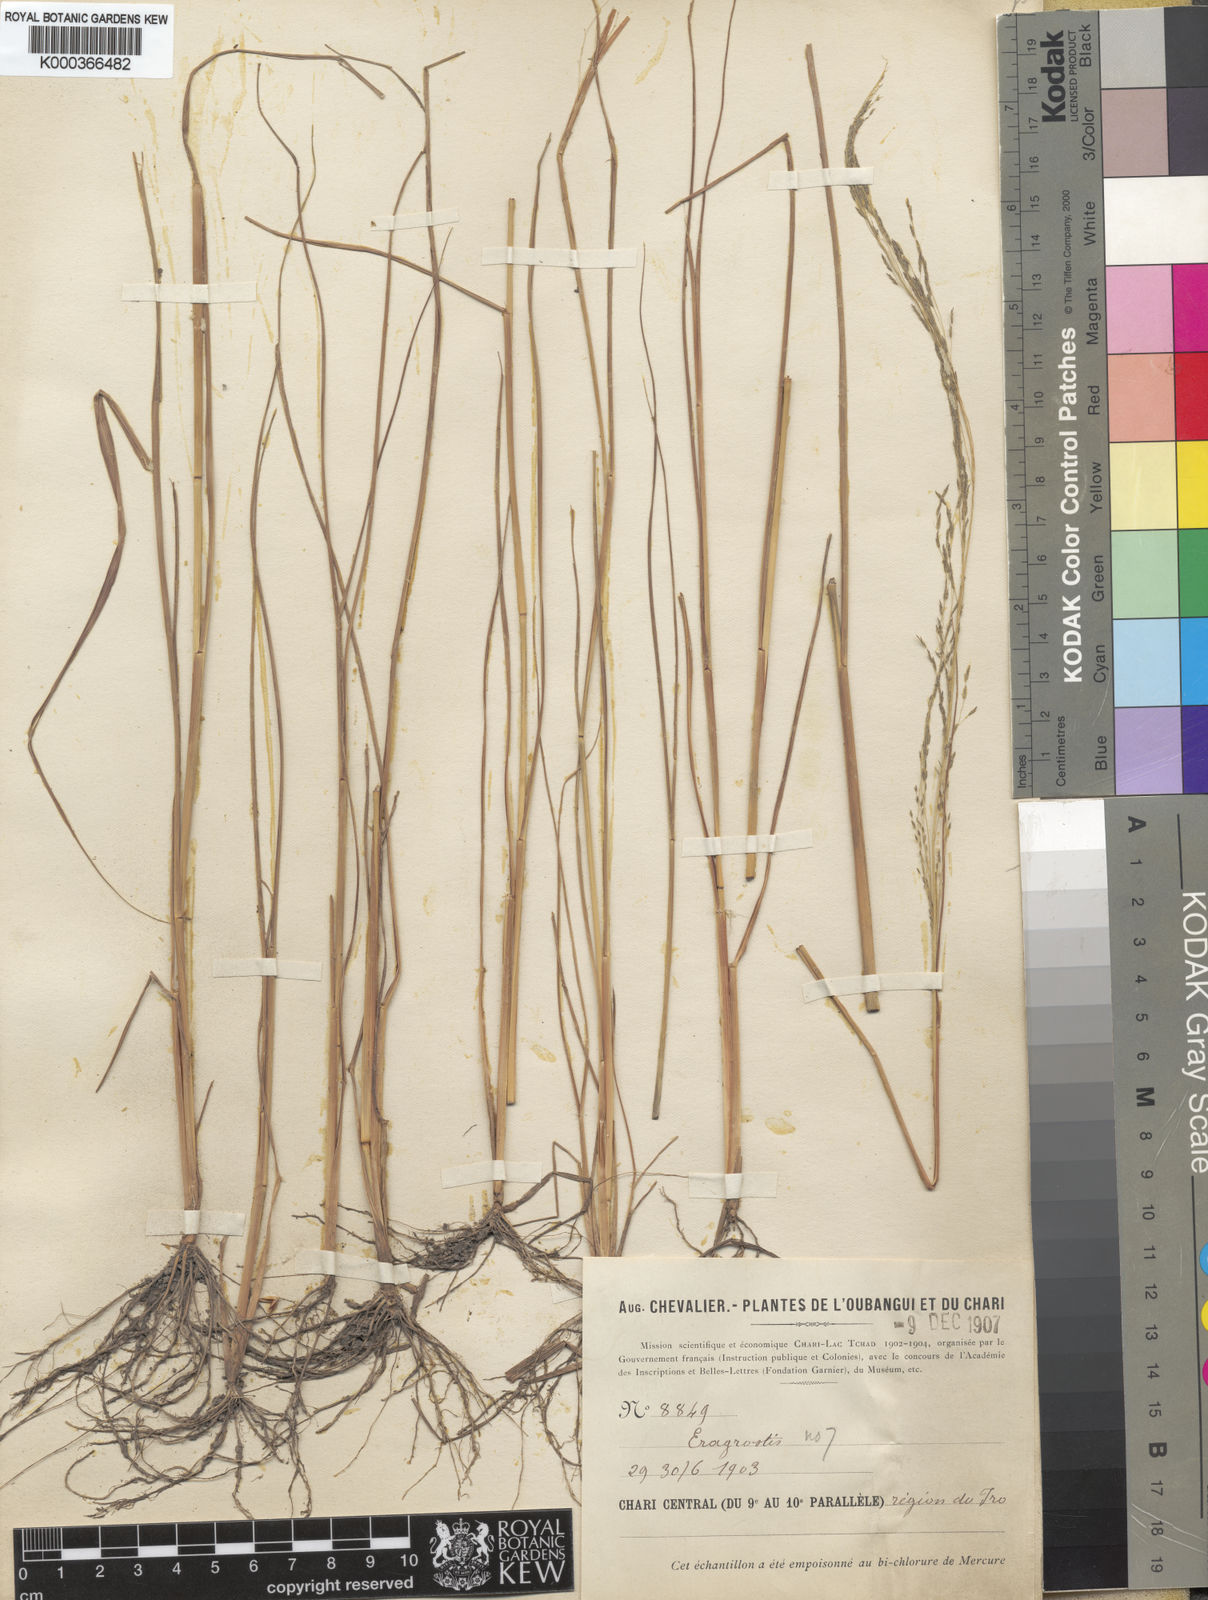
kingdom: Plantae
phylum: Tracheophyta
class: Liliopsida
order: Poales
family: Poaceae
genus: Eragrostis
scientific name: Eragrostis pilosa
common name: Indian lovegrass
